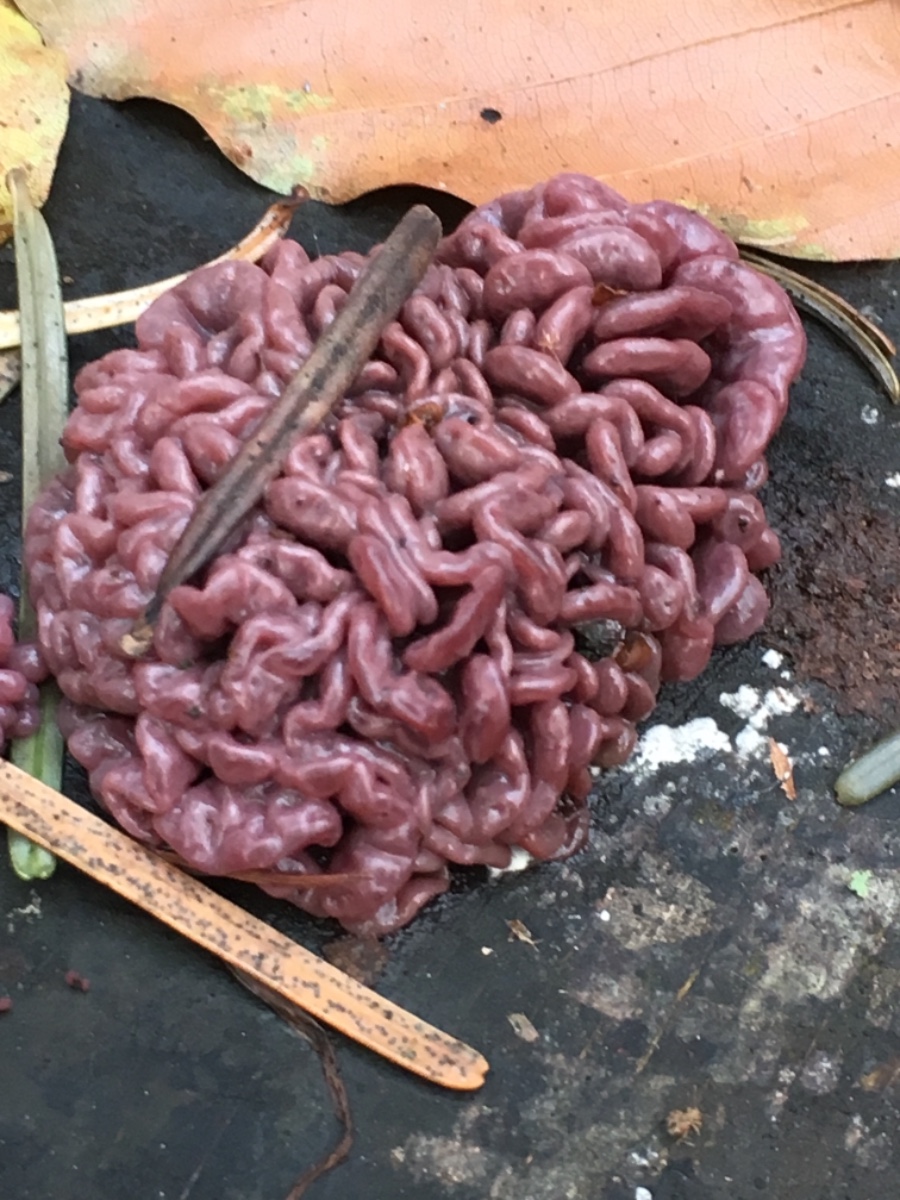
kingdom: Fungi
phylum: Ascomycota
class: Leotiomycetes
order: Helotiales
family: Gelatinodiscaceae
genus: Ascocoryne
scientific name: Ascocoryne sarcoides
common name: rødlilla sejskive
